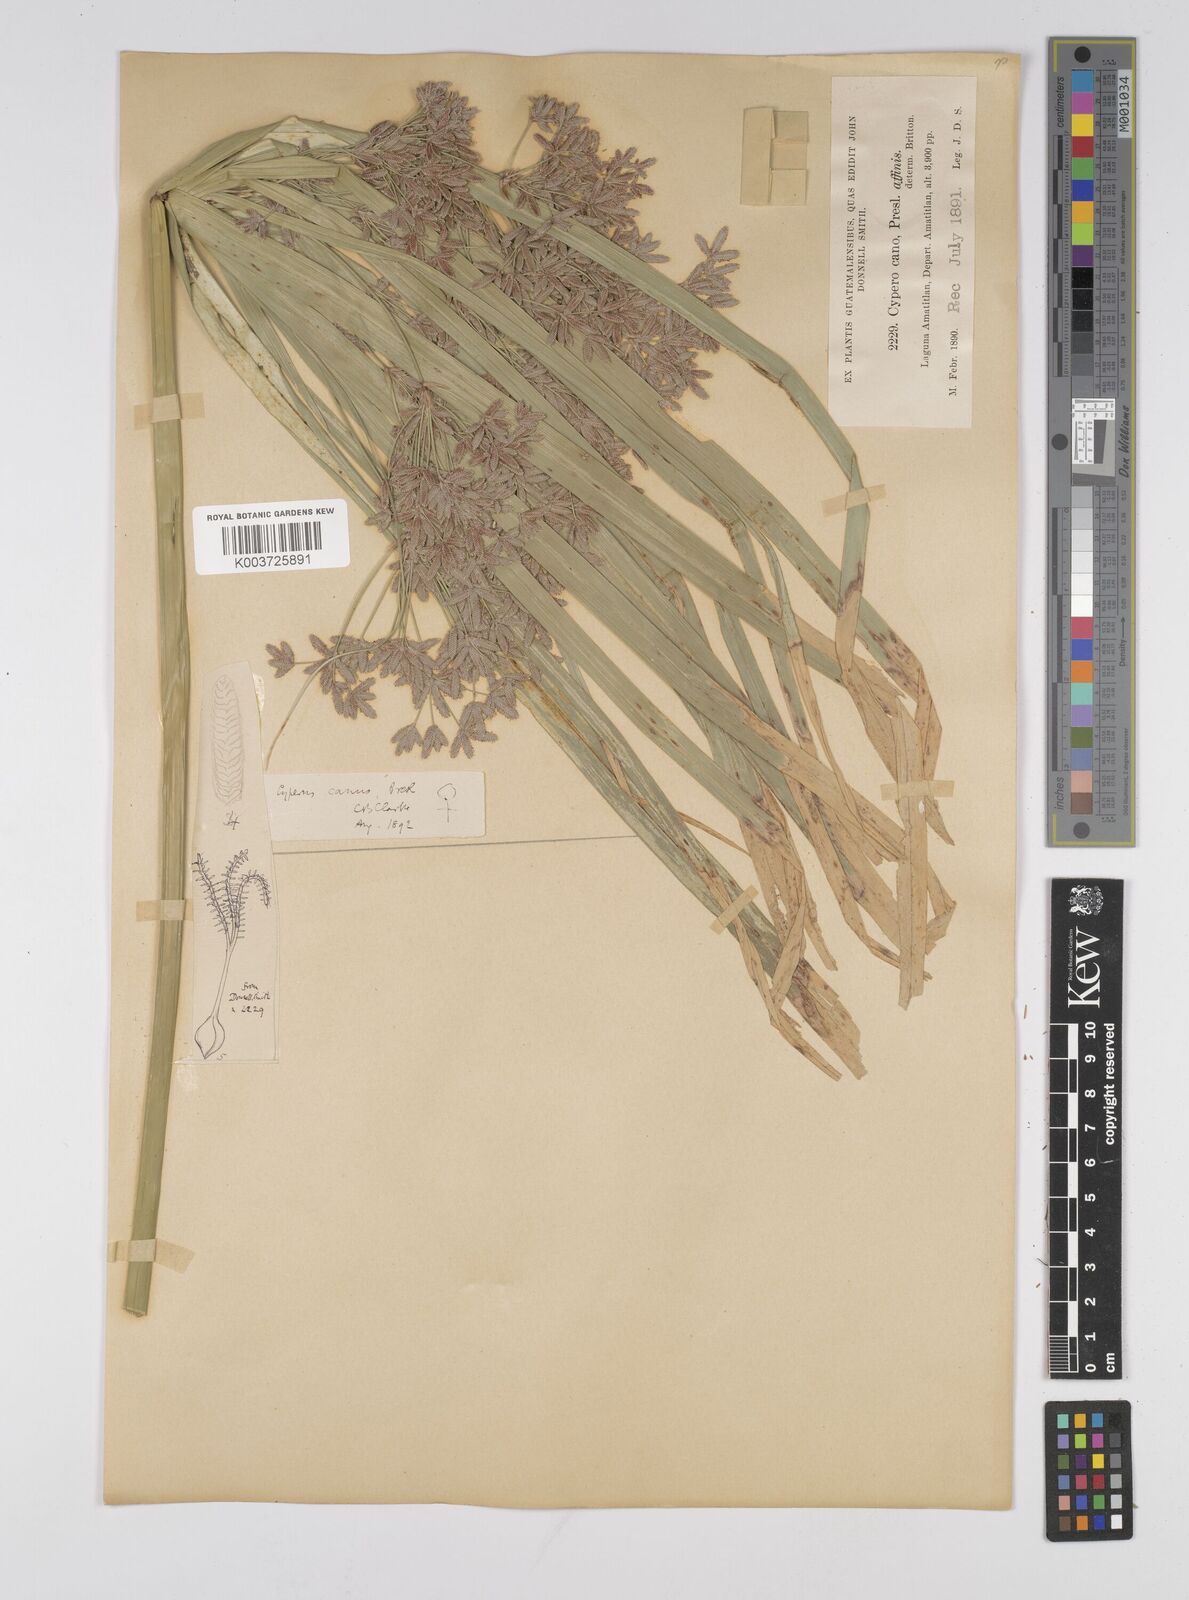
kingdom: Plantae
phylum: Tracheophyta
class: Liliopsida
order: Poales
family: Cyperaceae
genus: Cyperus
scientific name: Cyperus canus
